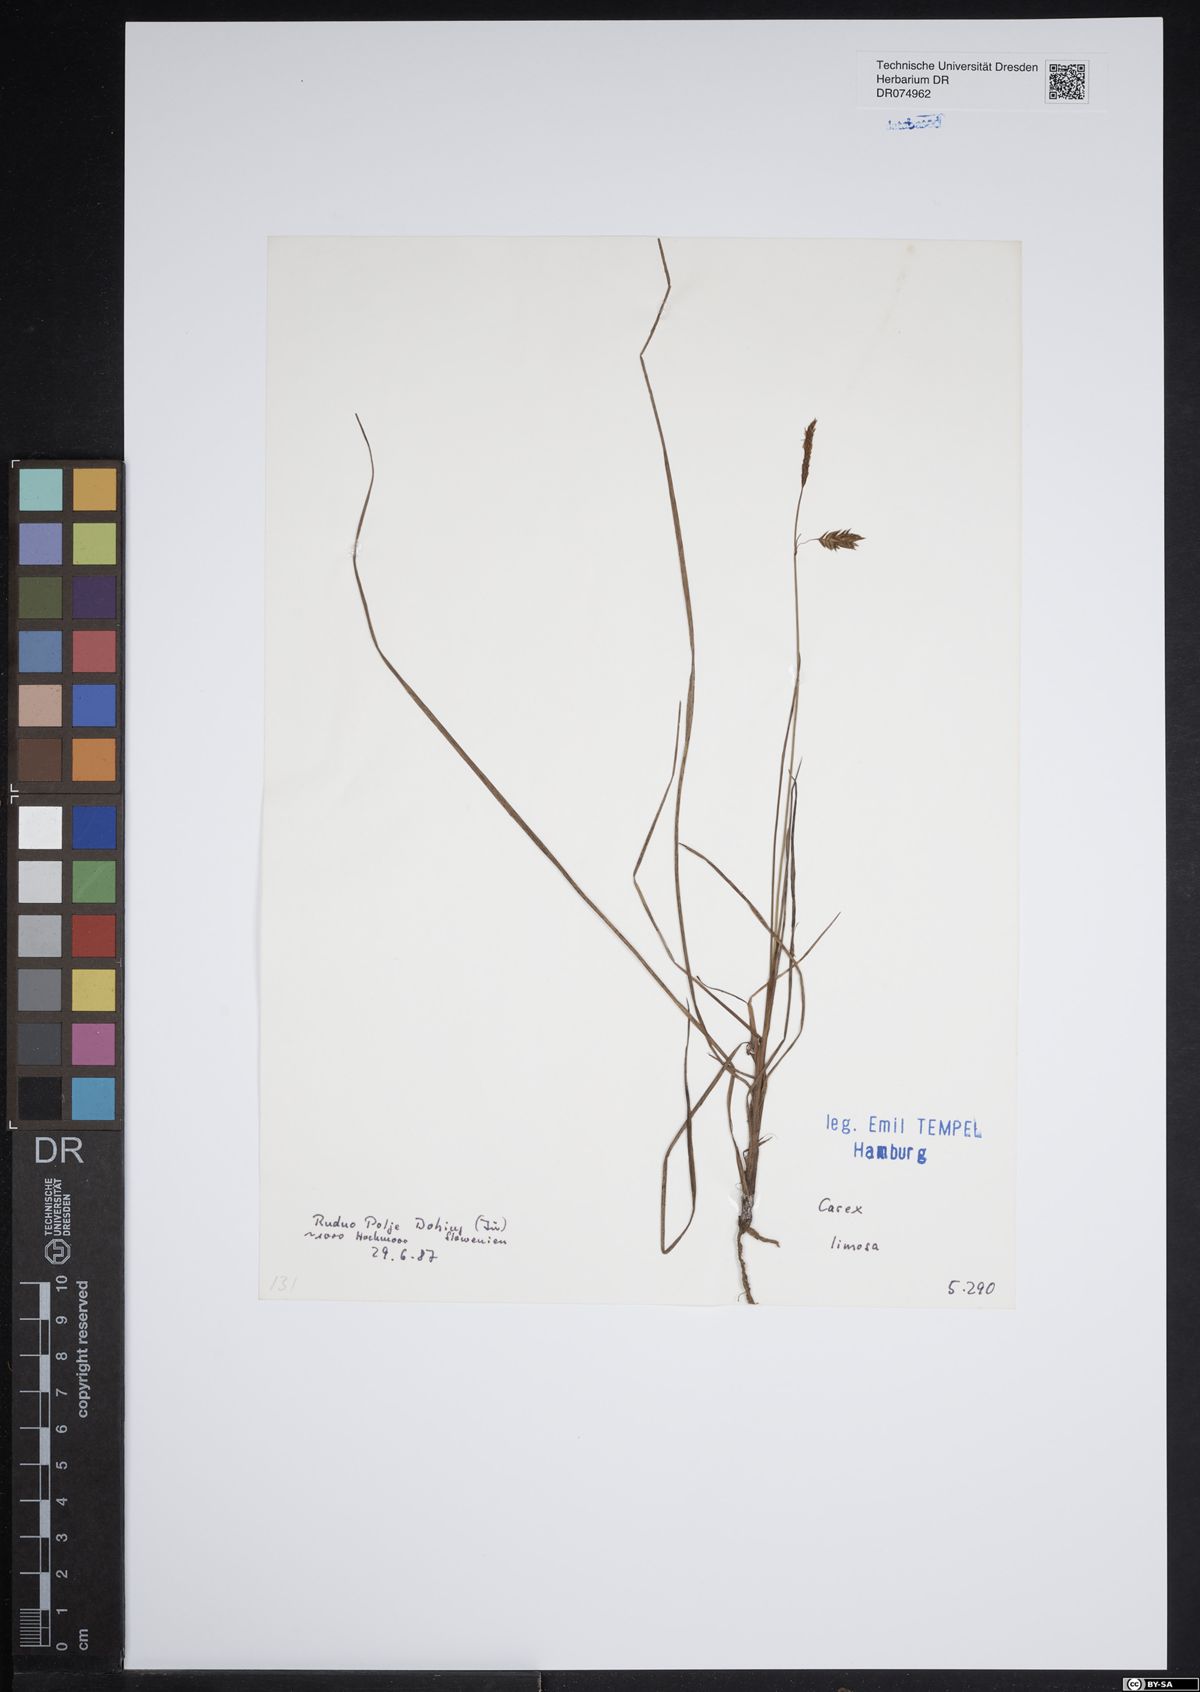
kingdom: Plantae
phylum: Tracheophyta
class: Liliopsida
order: Poales
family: Cyperaceae
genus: Carex
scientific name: Carex limosa
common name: Bog sedge
